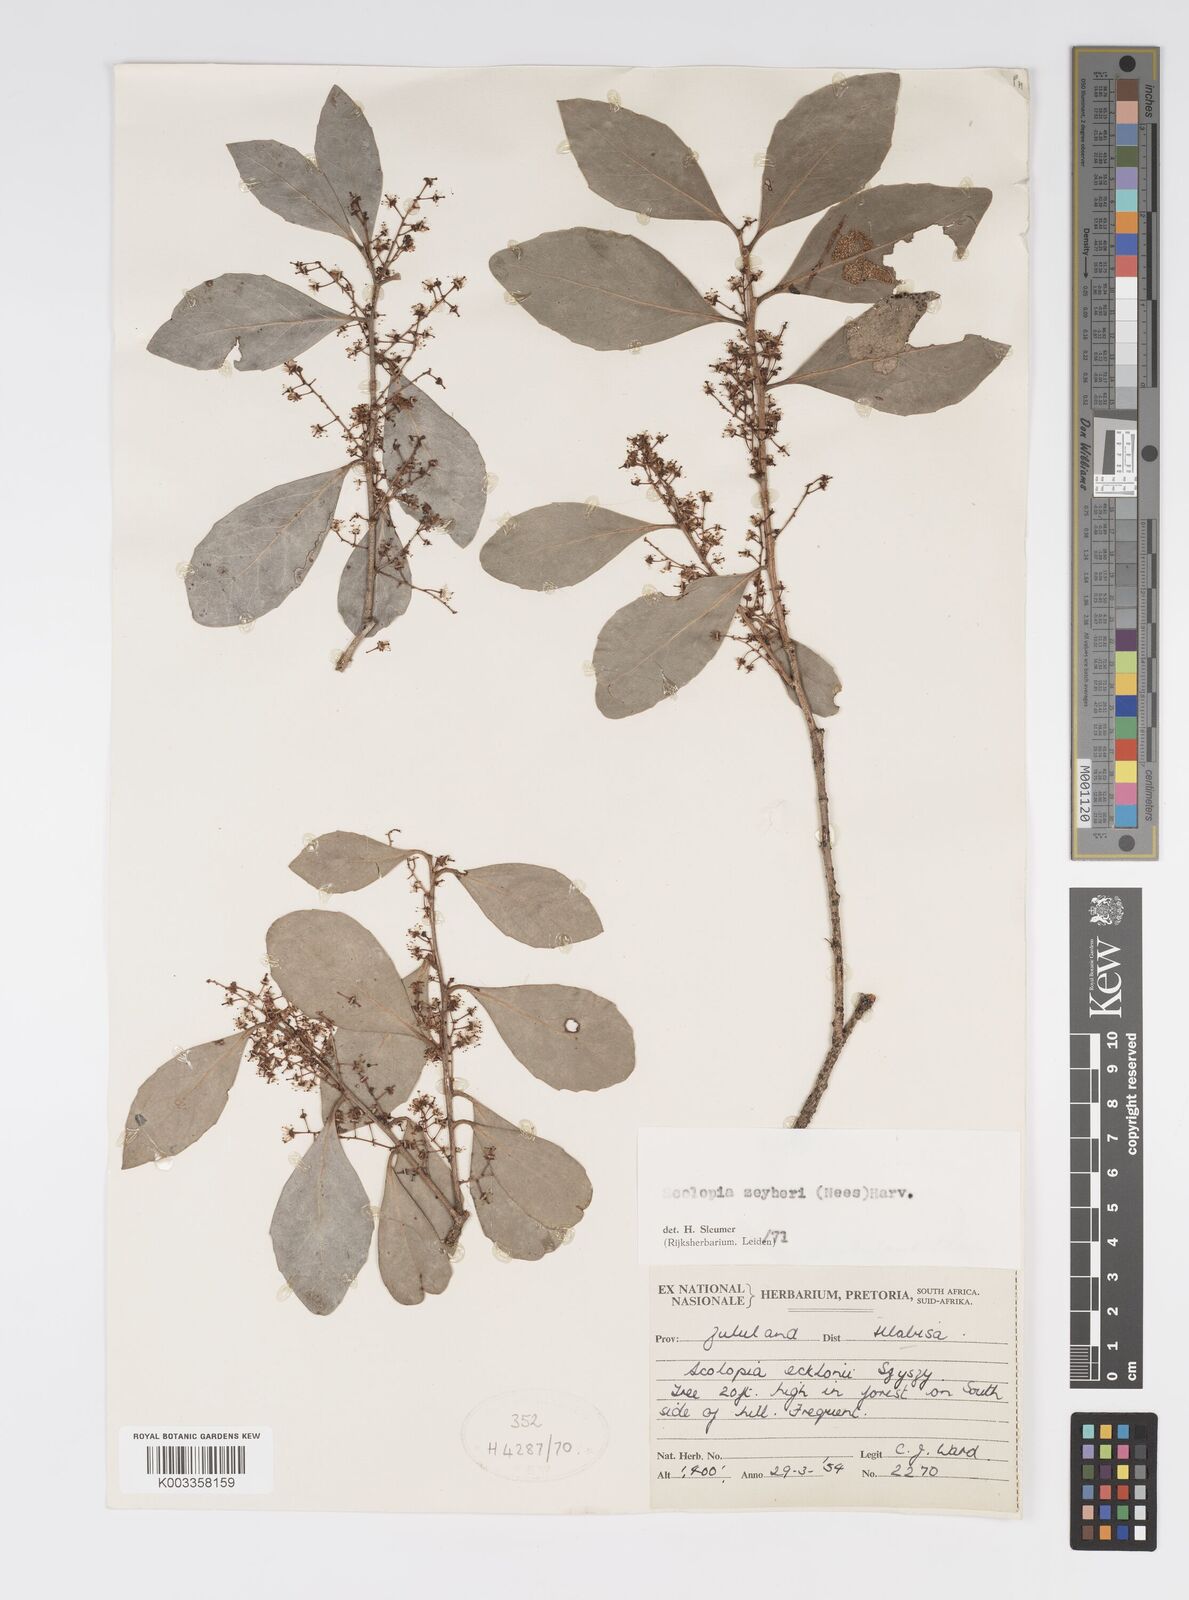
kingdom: Plantae
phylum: Tracheophyta
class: Magnoliopsida
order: Malpighiales
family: Salicaceae
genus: Scolopia
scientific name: Scolopia zeyheri
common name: Thorn pear
